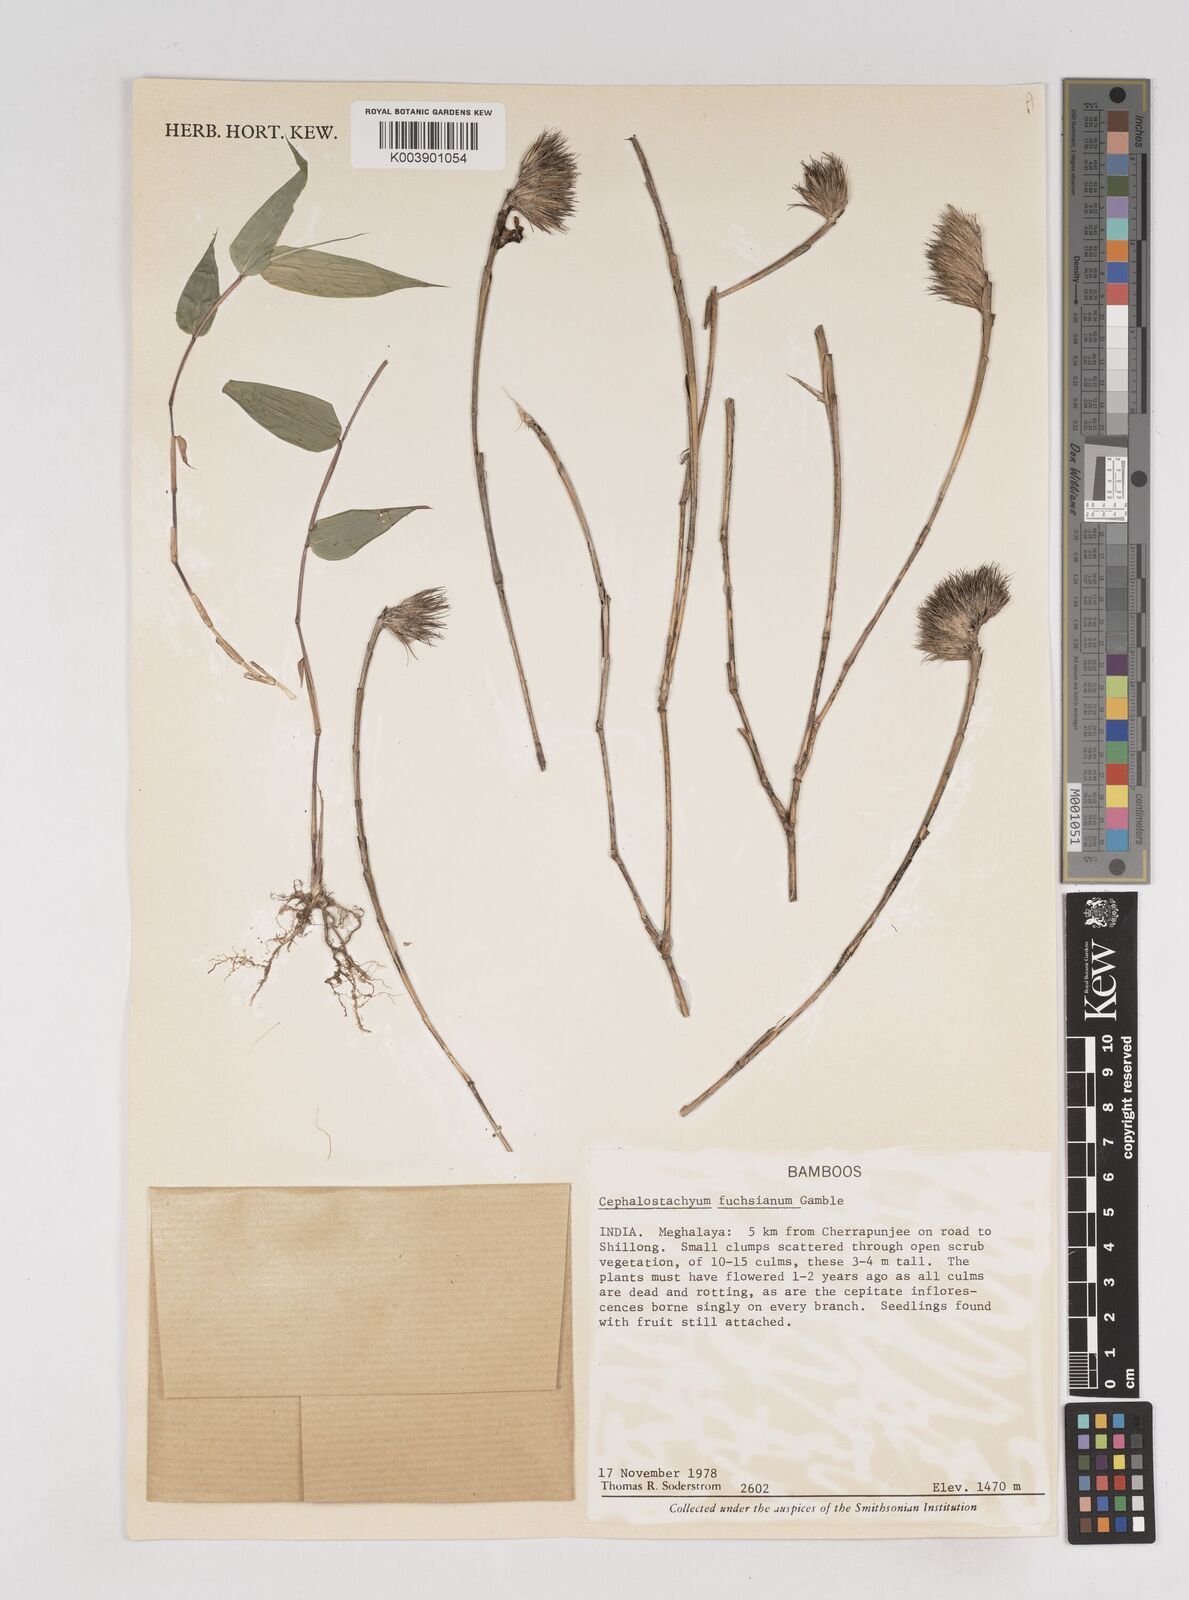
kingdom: Plantae
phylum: Tracheophyta
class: Liliopsida
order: Poales
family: Poaceae
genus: Cephalostachyum
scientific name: Cephalostachyum
